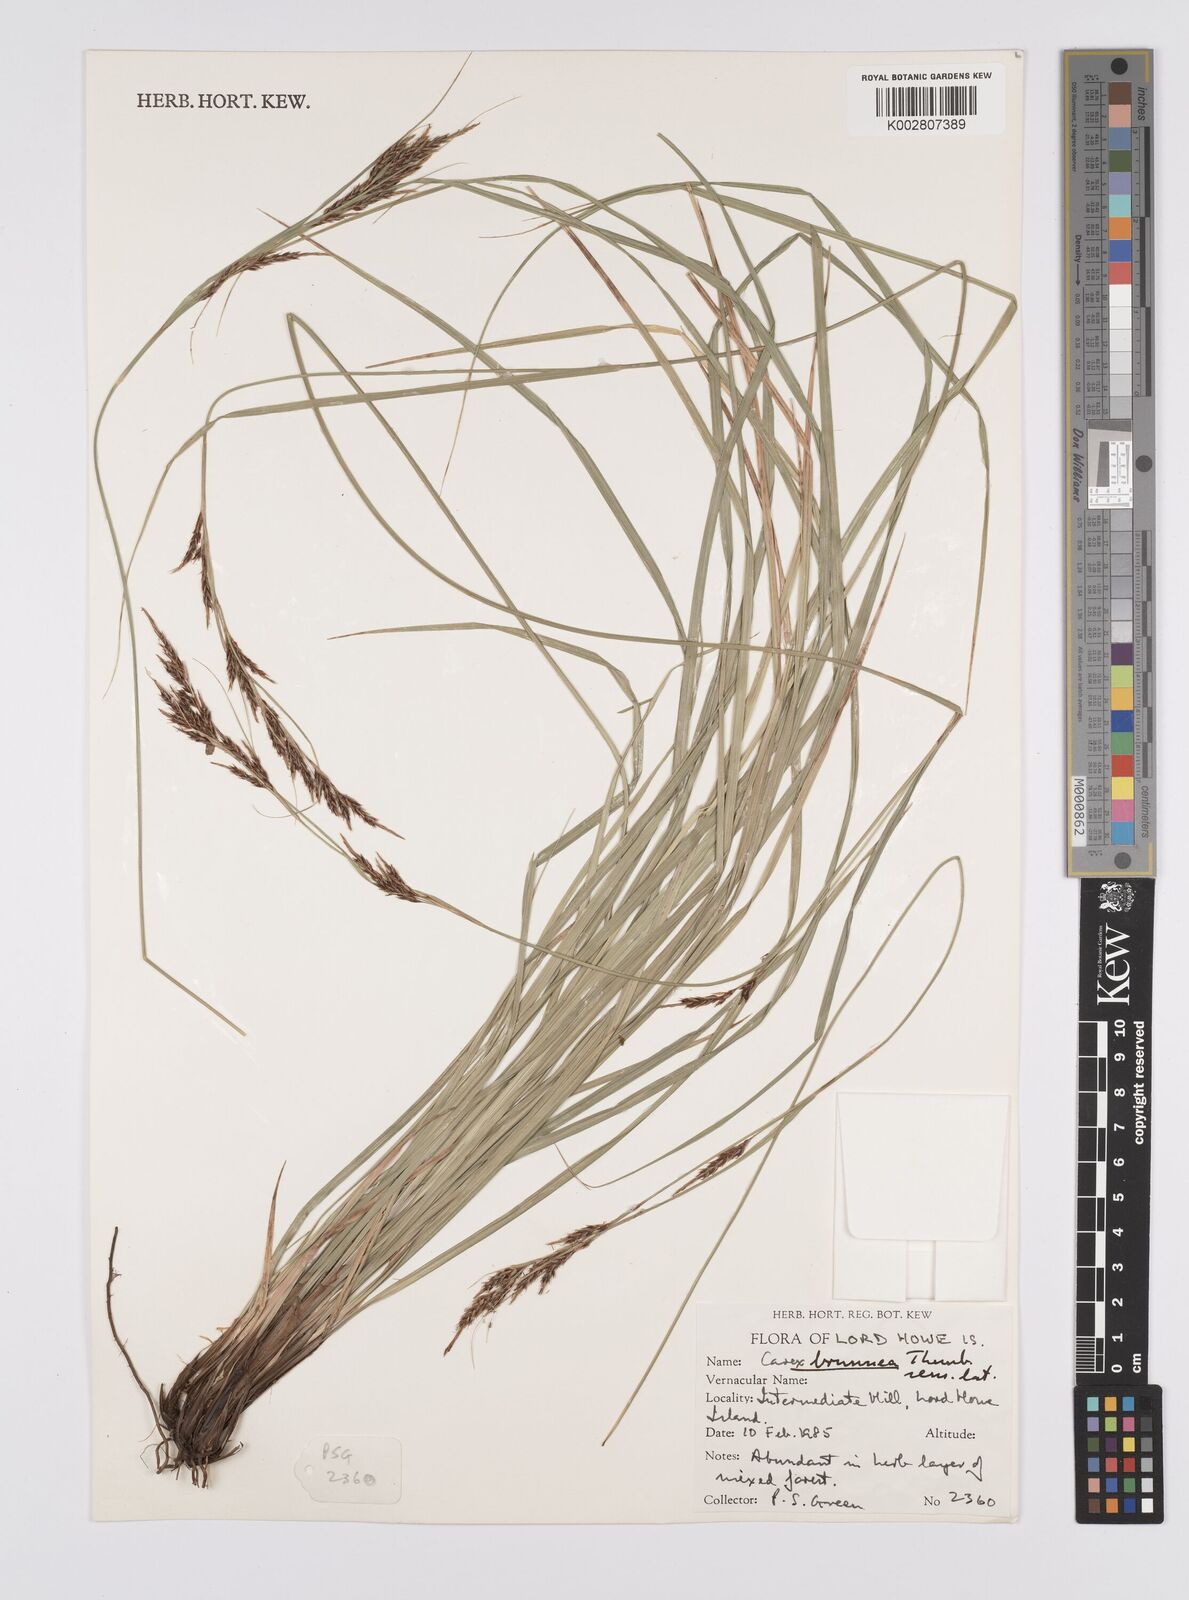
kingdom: Plantae
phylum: Tracheophyta
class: Liliopsida
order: Poales
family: Cyperaceae
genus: Carex
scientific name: Carex hattoriana
